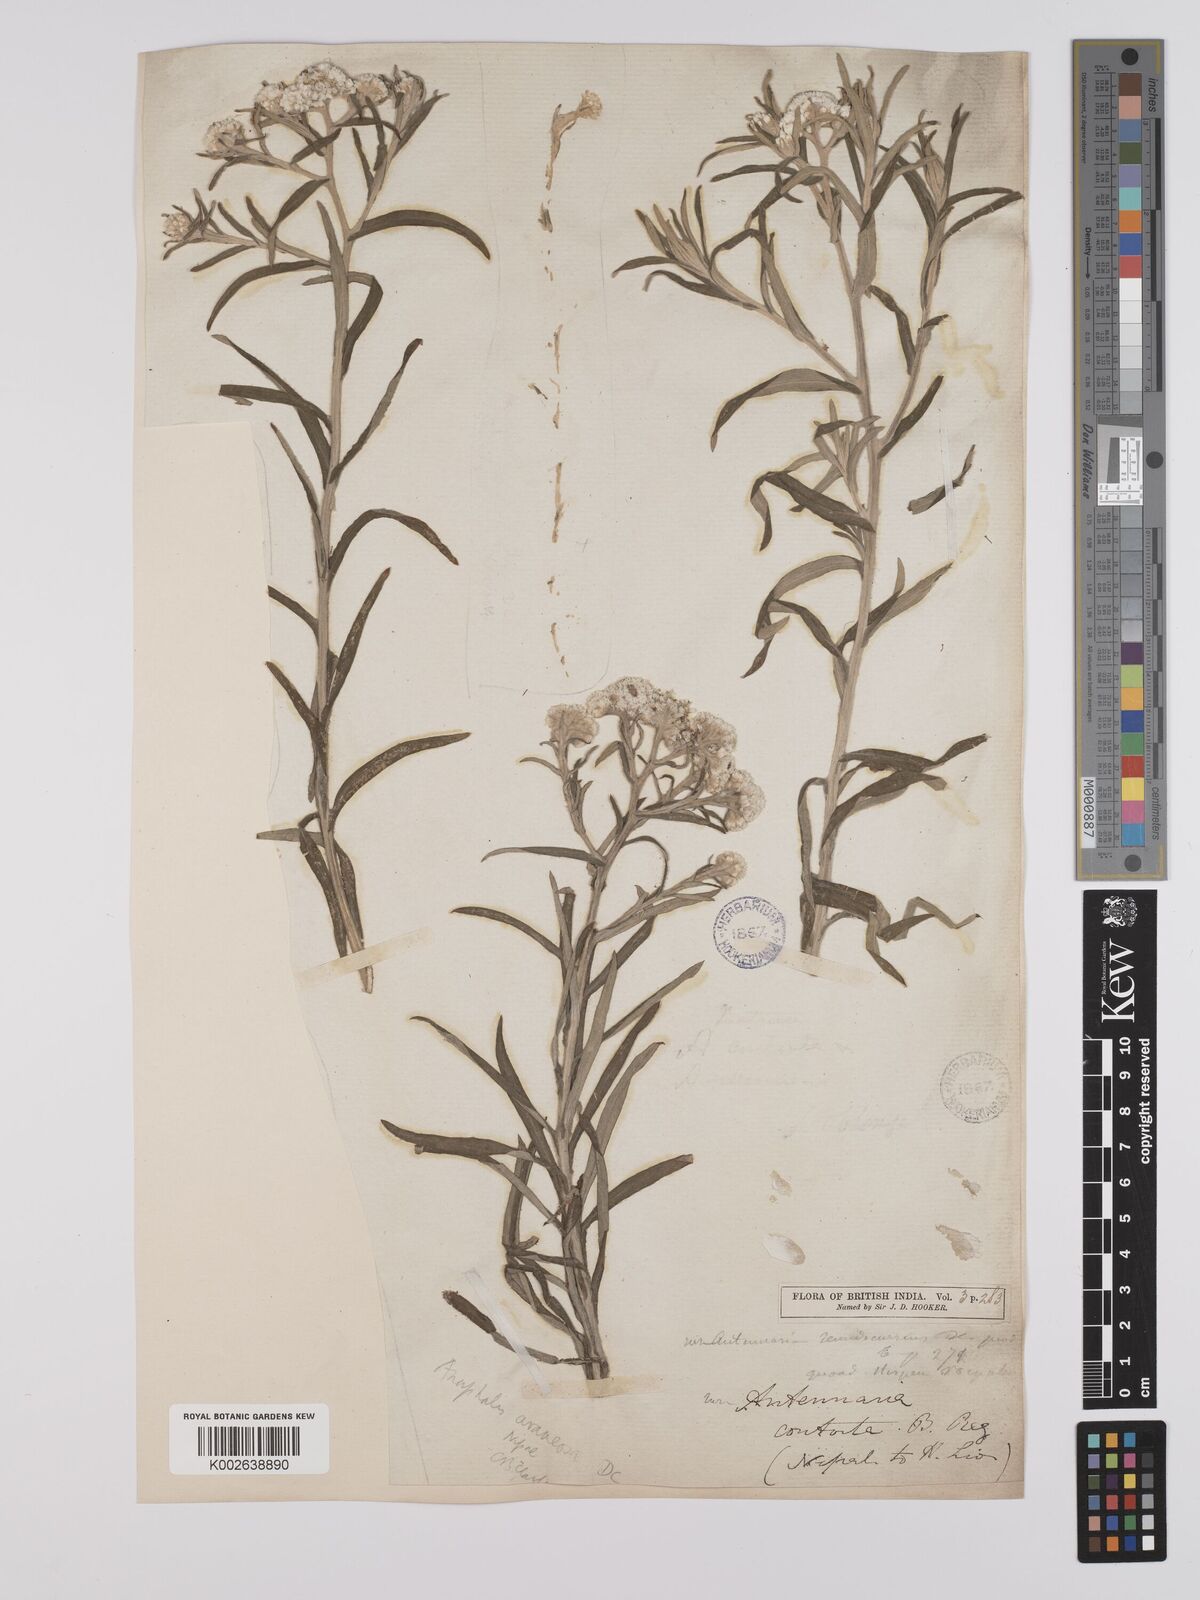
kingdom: Plantae
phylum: Tracheophyta
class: Magnoliopsida
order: Asterales
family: Asteraceae
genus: Anaphalis
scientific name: Anaphalis busua
